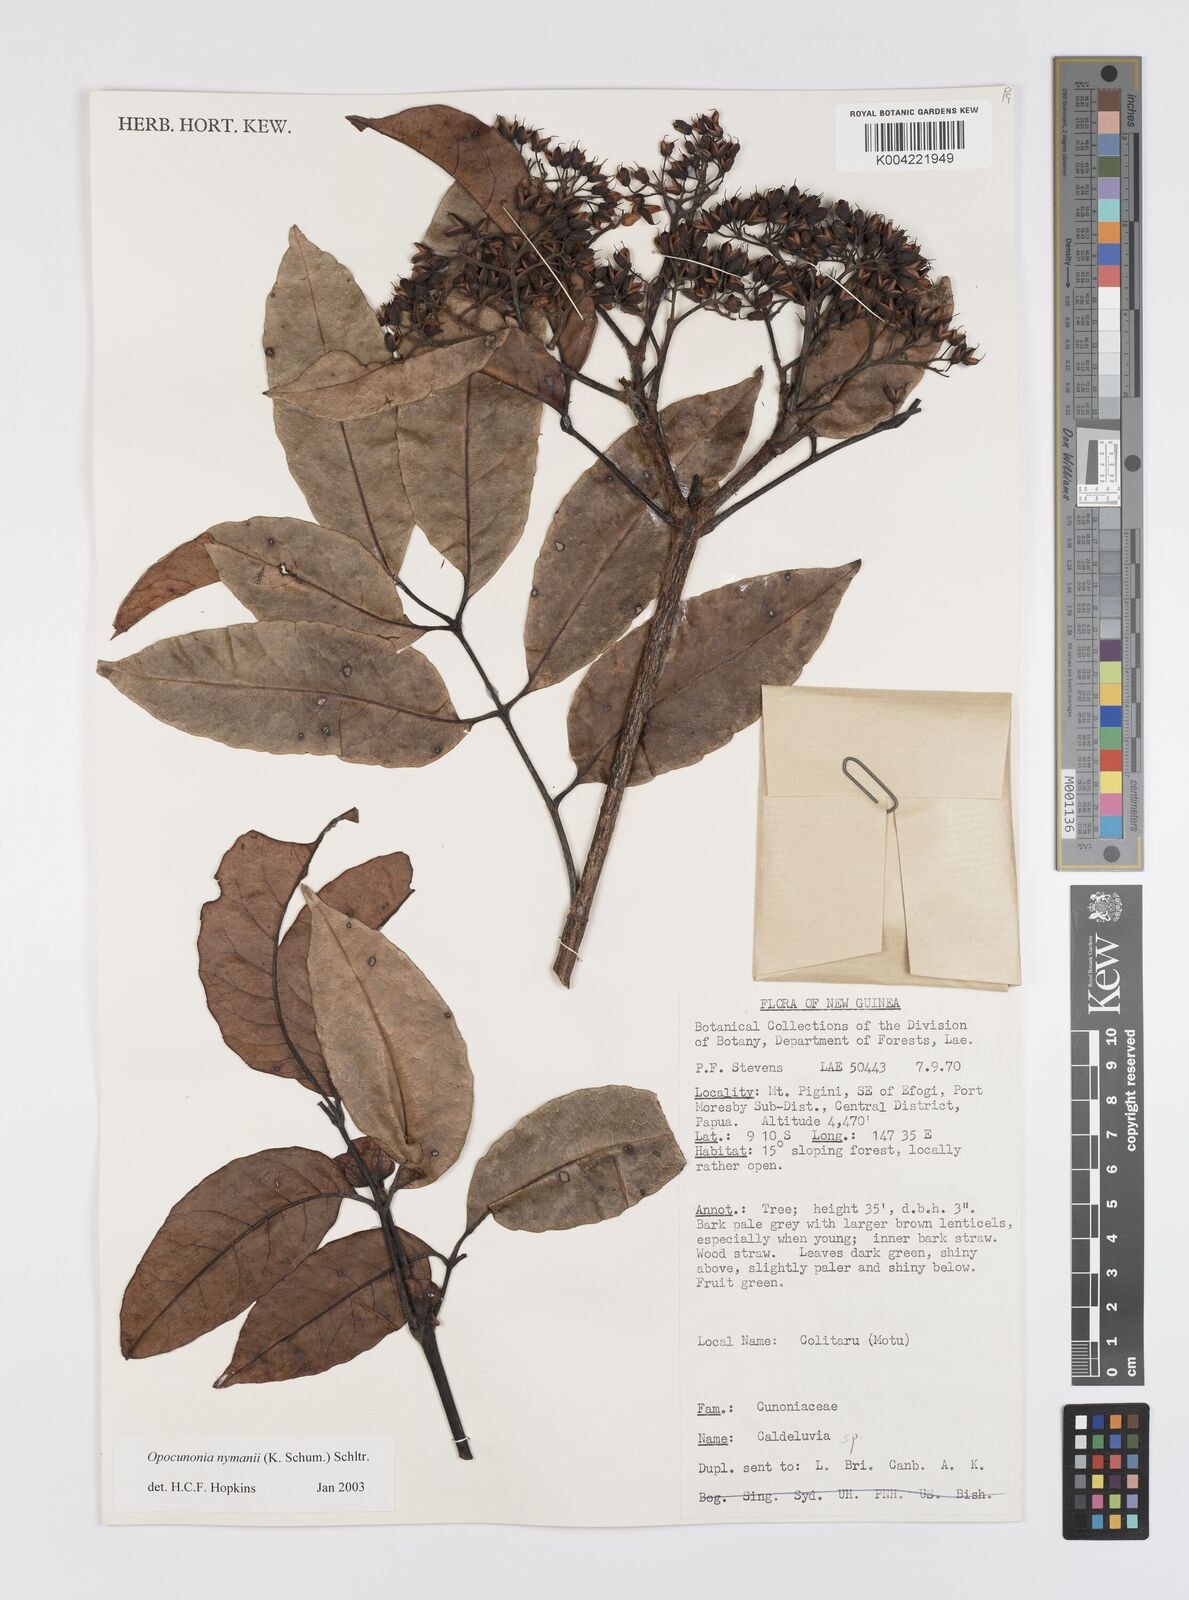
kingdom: Plantae
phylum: Tracheophyta
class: Magnoliopsida
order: Oxalidales
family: Cunoniaceae
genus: Opocunonia
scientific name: Opocunonia nymanii
